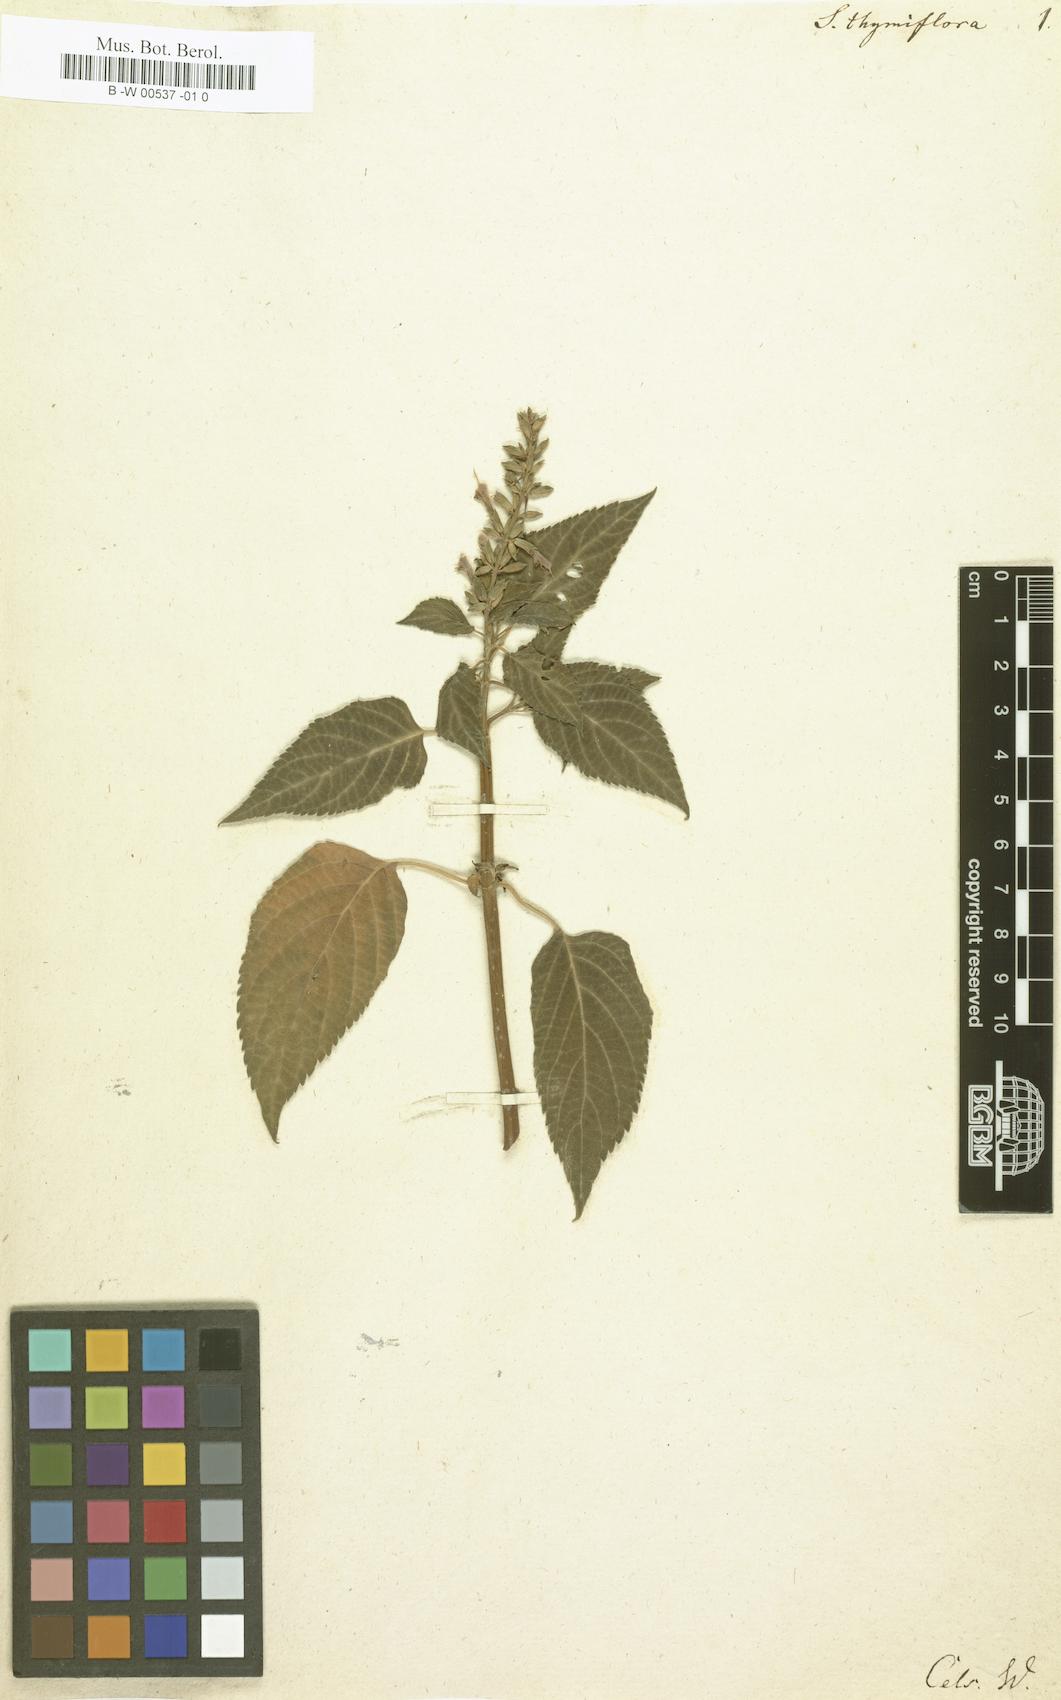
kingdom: Plantae
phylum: Tracheophyta
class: Magnoliopsida
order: Lamiales
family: Lamiaceae
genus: Salvia
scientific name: Salvia lamiifolia
